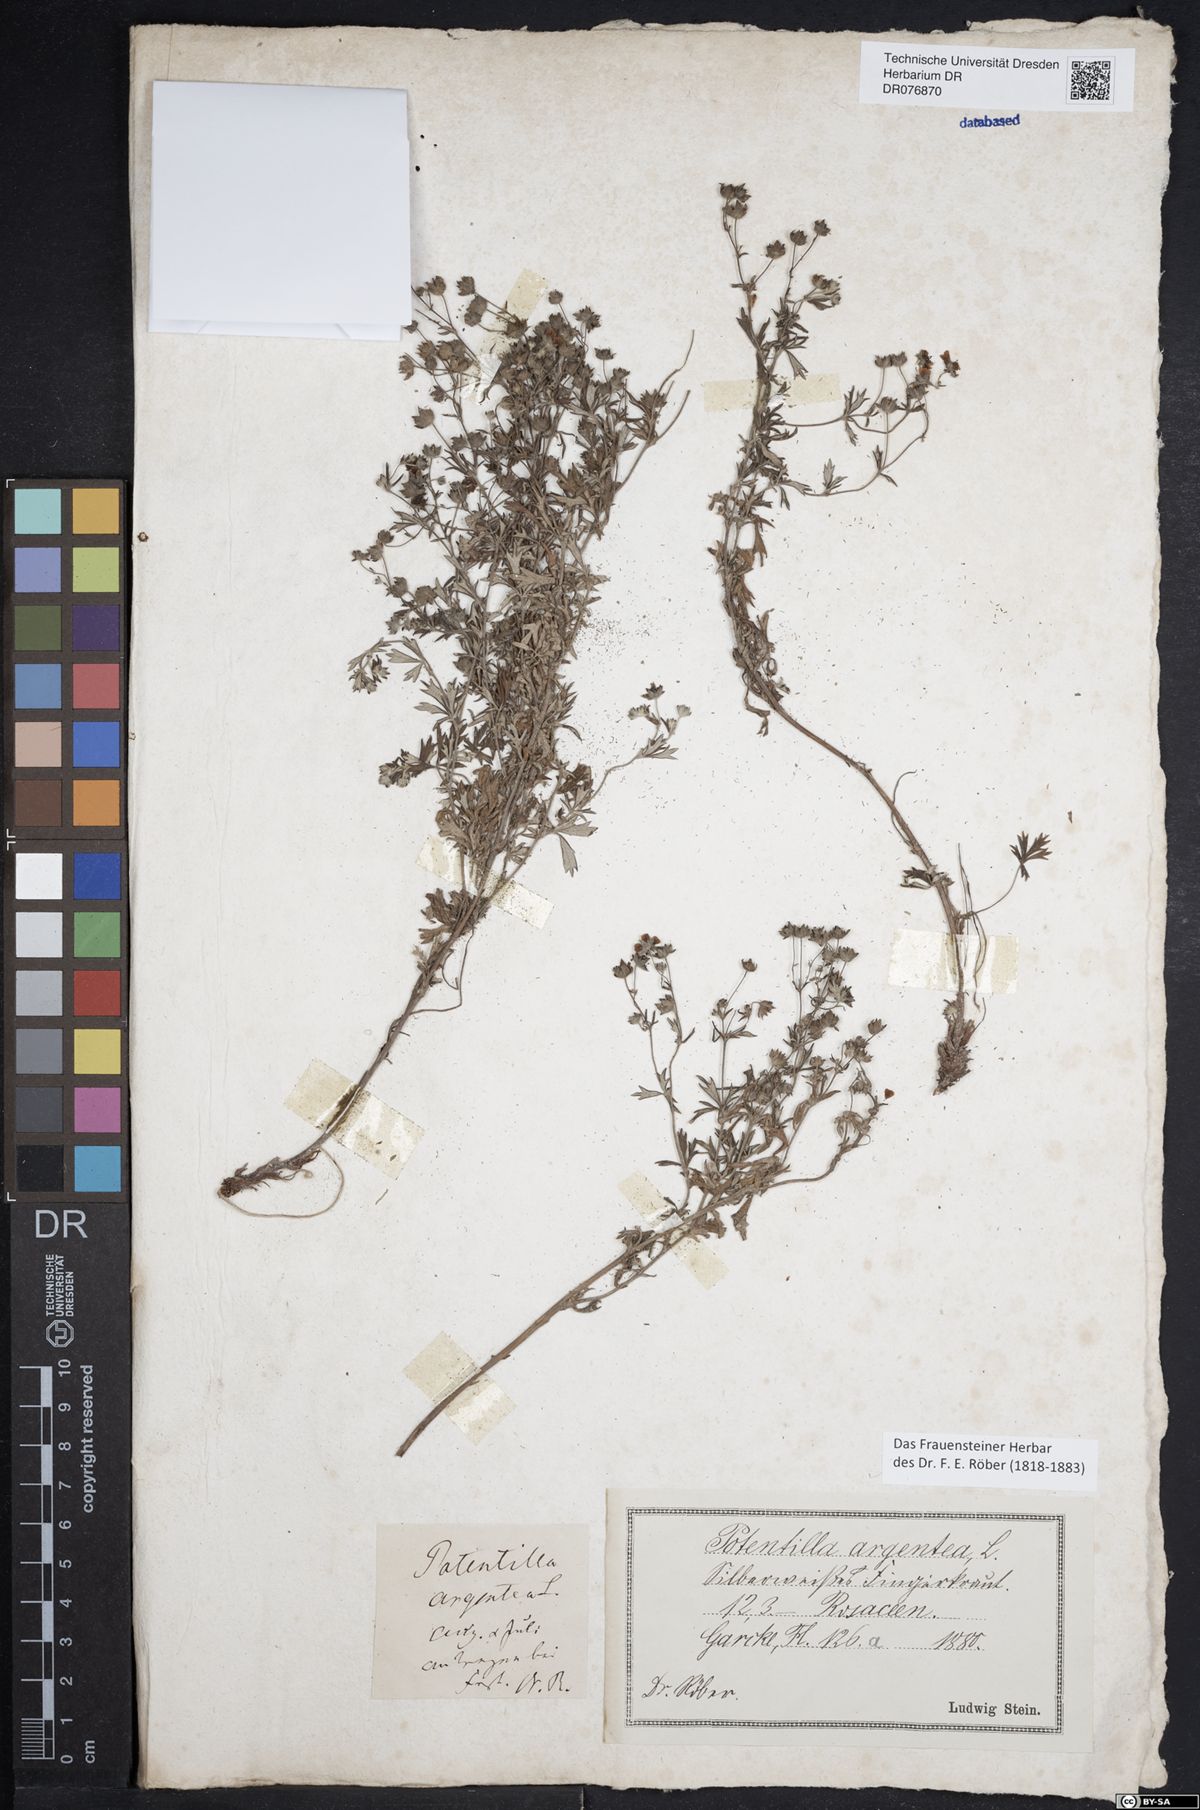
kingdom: Plantae
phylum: Tracheophyta
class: Magnoliopsida
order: Rosales
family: Rosaceae
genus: Potentilla
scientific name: Potentilla argentea
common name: Hoary cinquefoil
